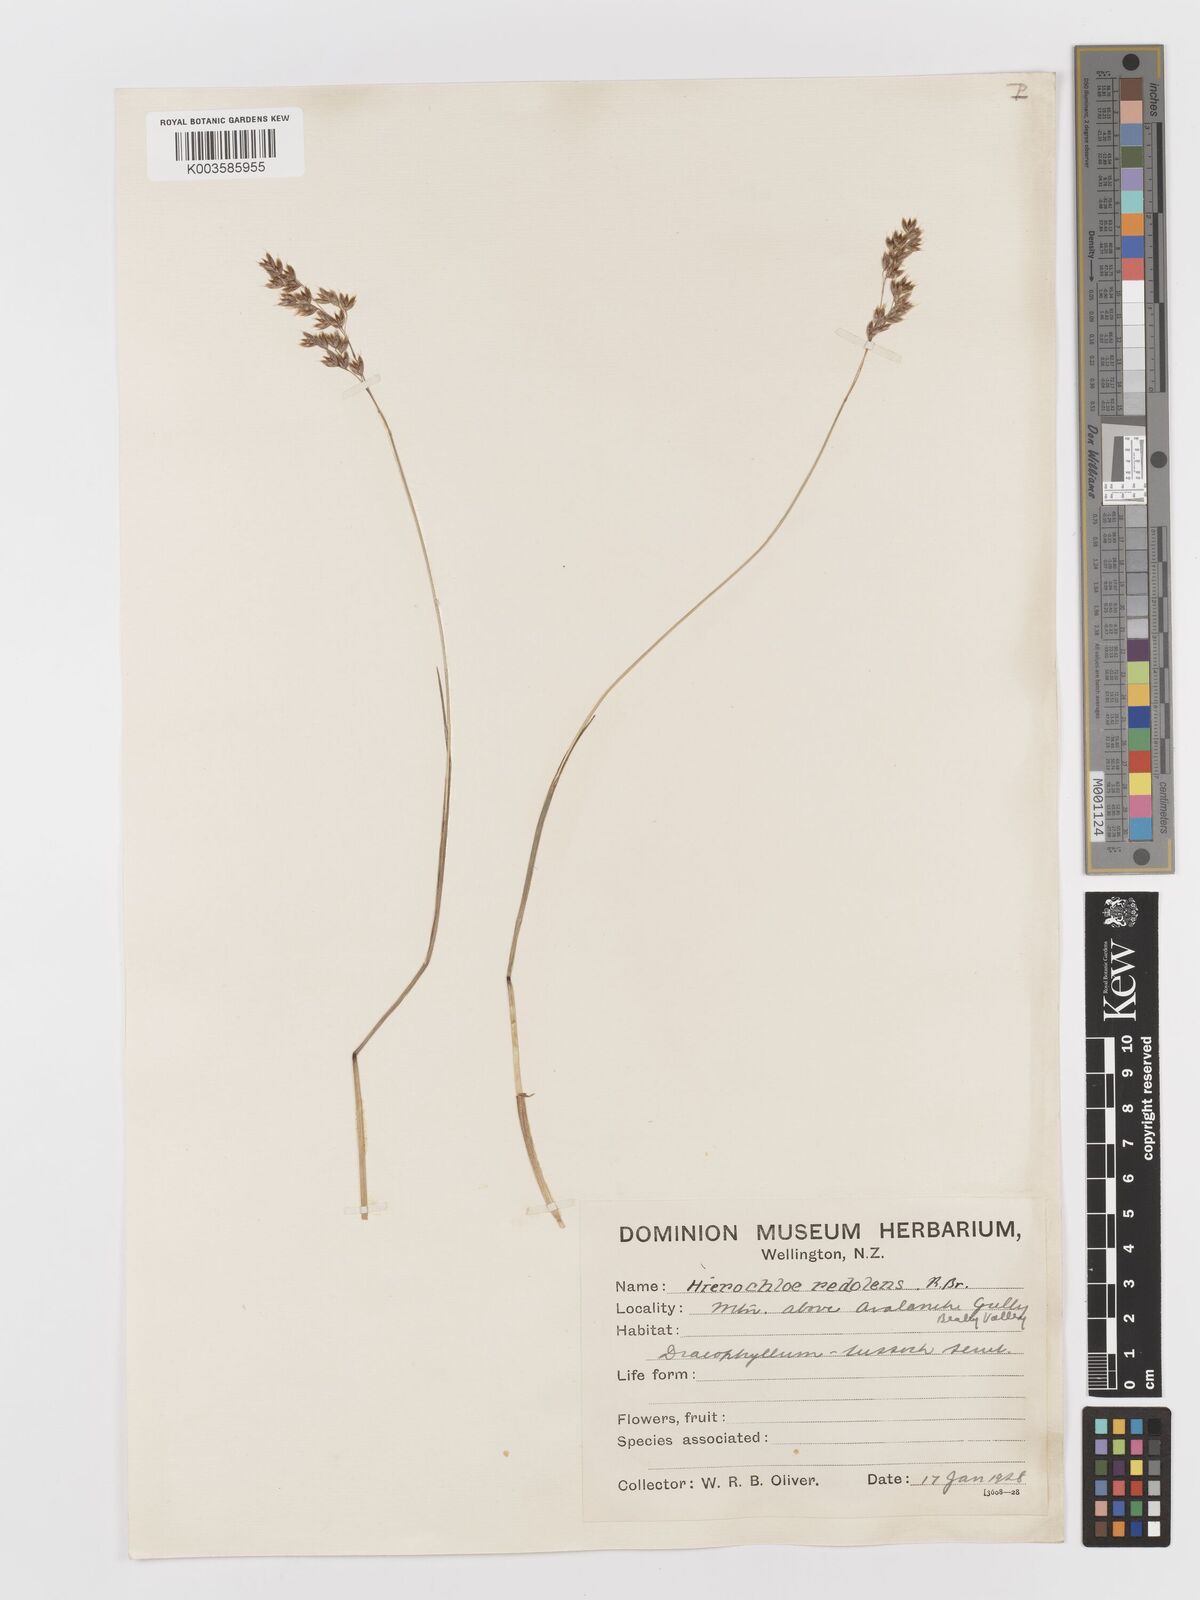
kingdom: Plantae
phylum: Tracheophyta
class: Liliopsida
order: Poales
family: Poaceae
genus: Anthoxanthum
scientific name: Anthoxanthum redolens
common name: Sweet holy grass
